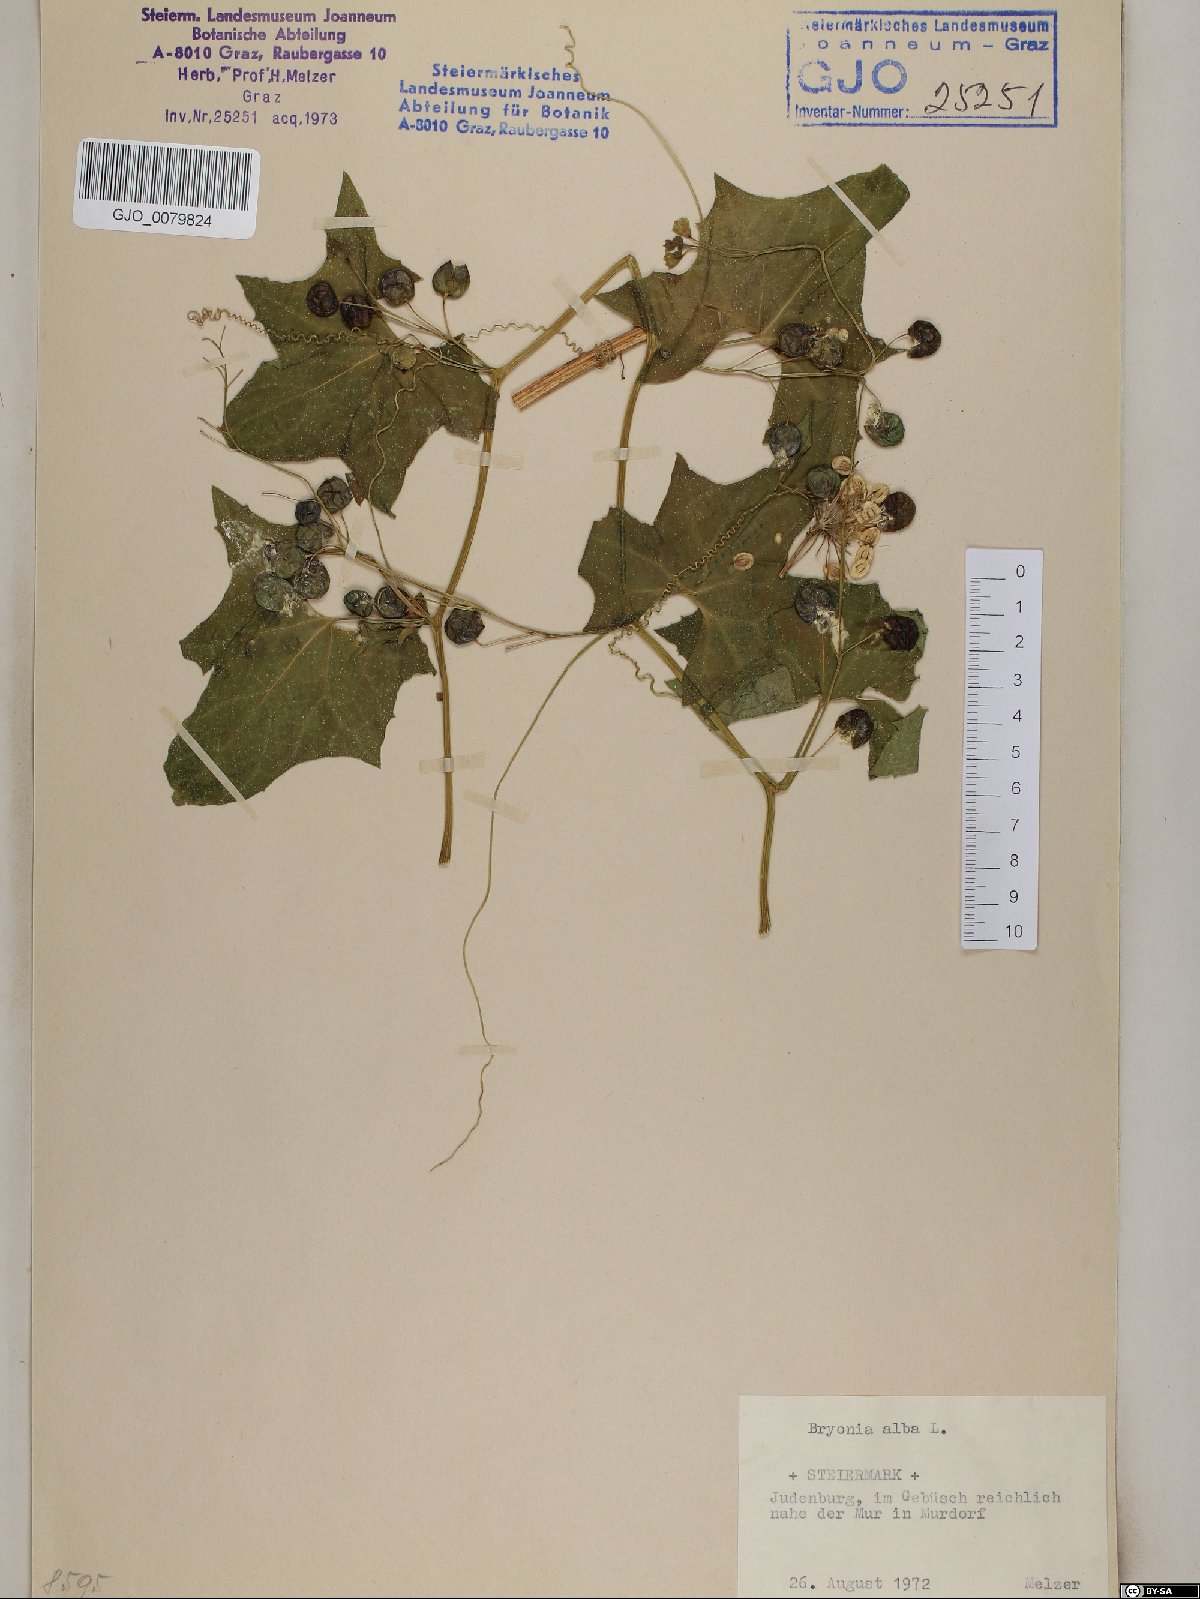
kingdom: Plantae
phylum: Tracheophyta
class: Magnoliopsida
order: Cucurbitales
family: Cucurbitaceae
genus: Bryonia
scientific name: Bryonia alba
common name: White bryony
